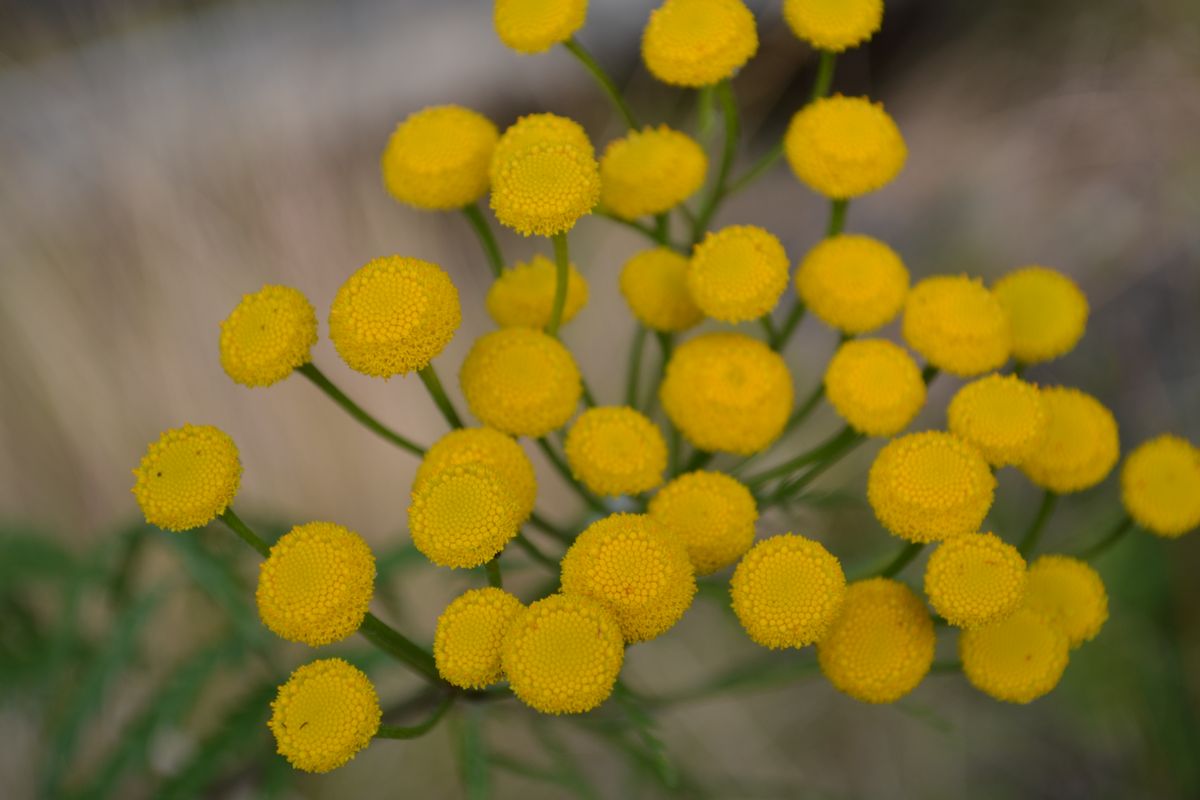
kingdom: Plantae
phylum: Tracheophyta
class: Magnoliopsida
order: Asterales
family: Asteraceae
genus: Tanacetum
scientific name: Tanacetum vulgare
